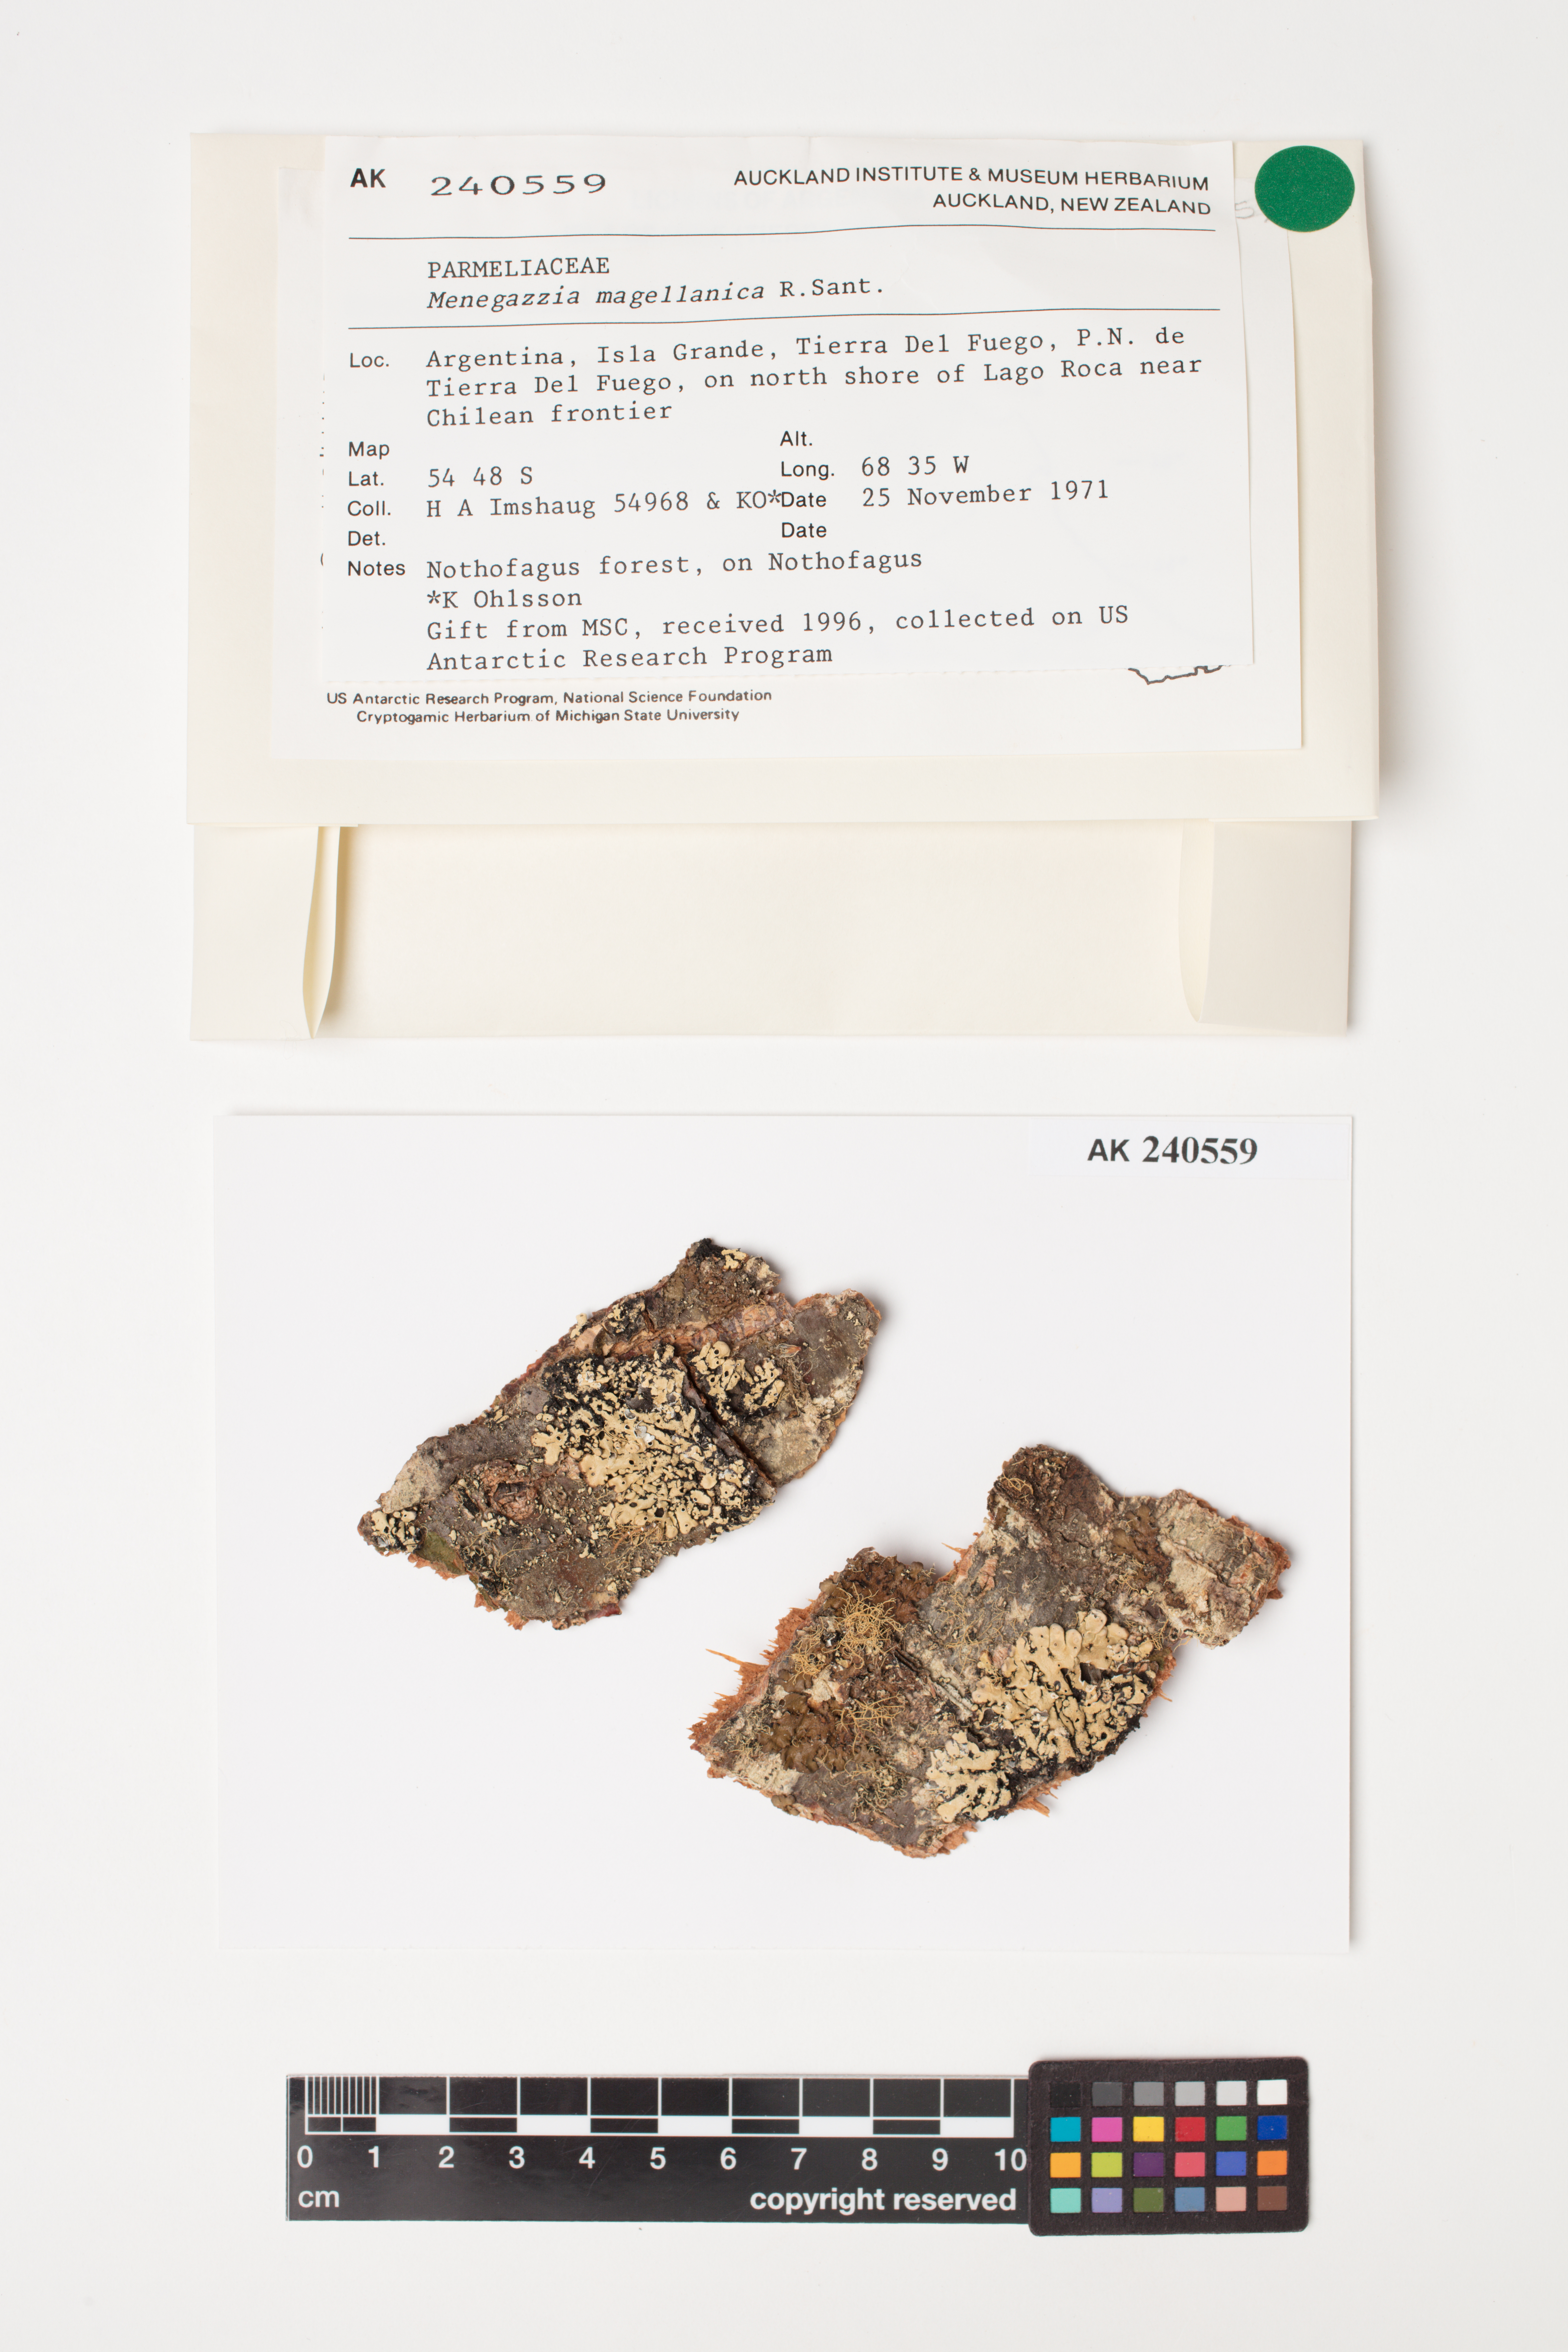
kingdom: Fungi
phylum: Ascomycota
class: Lecanoromycetes
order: Lecanorales
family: Parmeliaceae
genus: Menegazzia
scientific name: Menegazzia subpertusa
